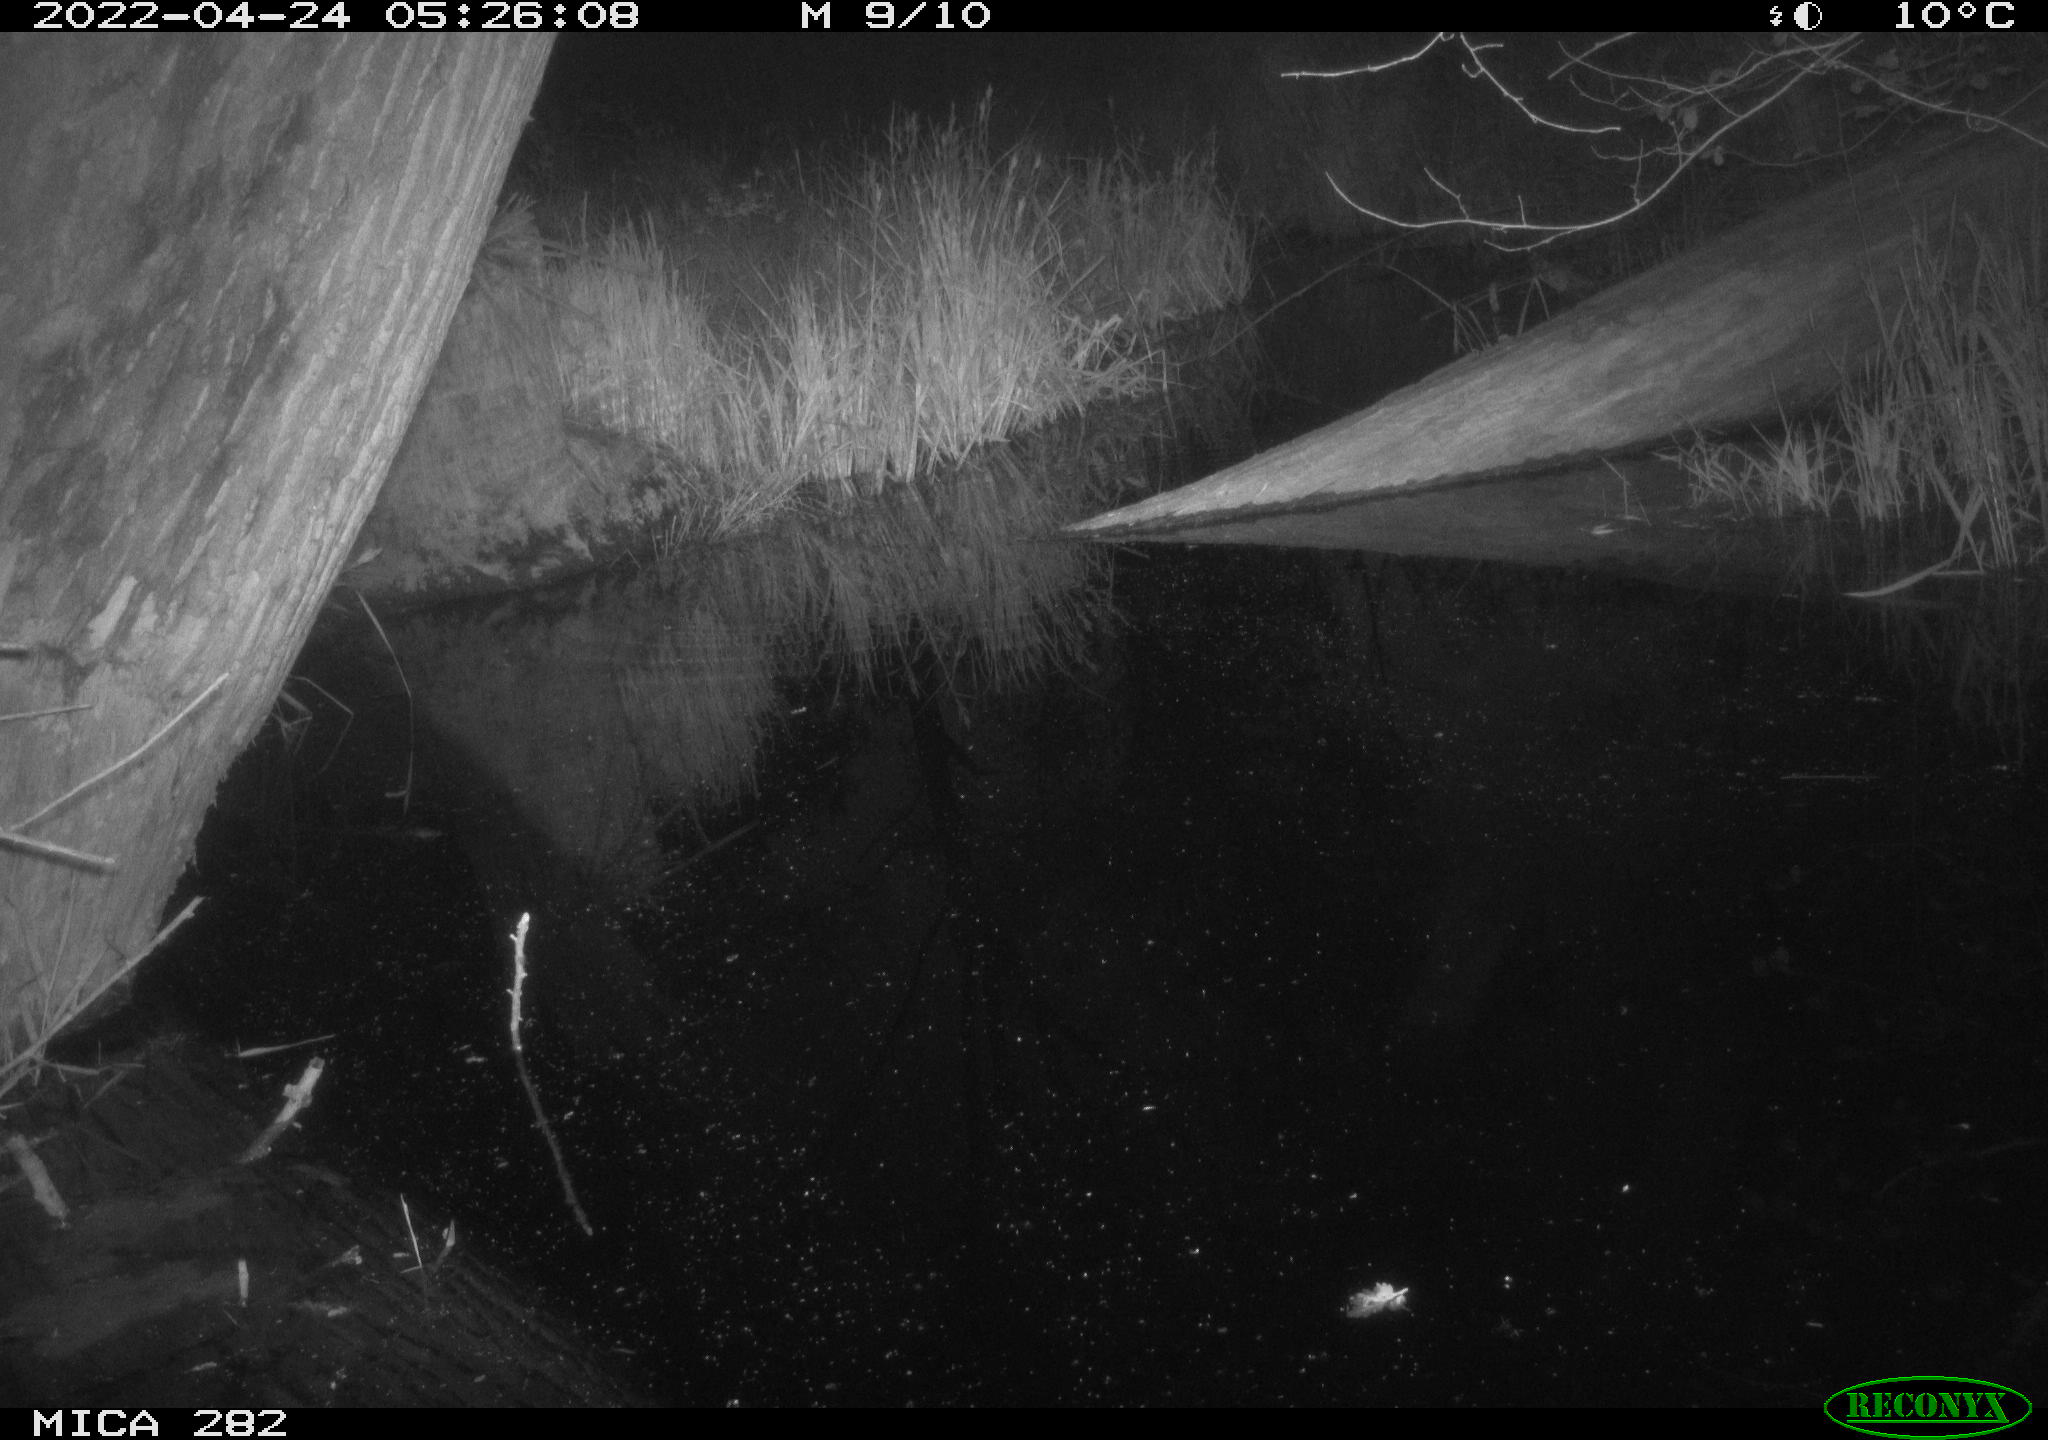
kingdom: Animalia
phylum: Chordata
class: Mammalia
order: Carnivora
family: Canidae
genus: Vulpes
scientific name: Vulpes vulpes
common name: Red fox
